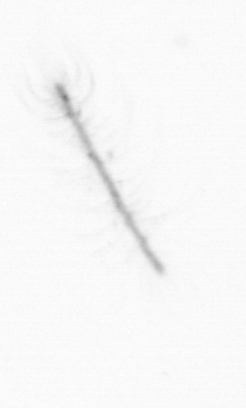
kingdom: Chromista
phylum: Ochrophyta
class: Bacillariophyceae
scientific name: Bacillariophyceae
